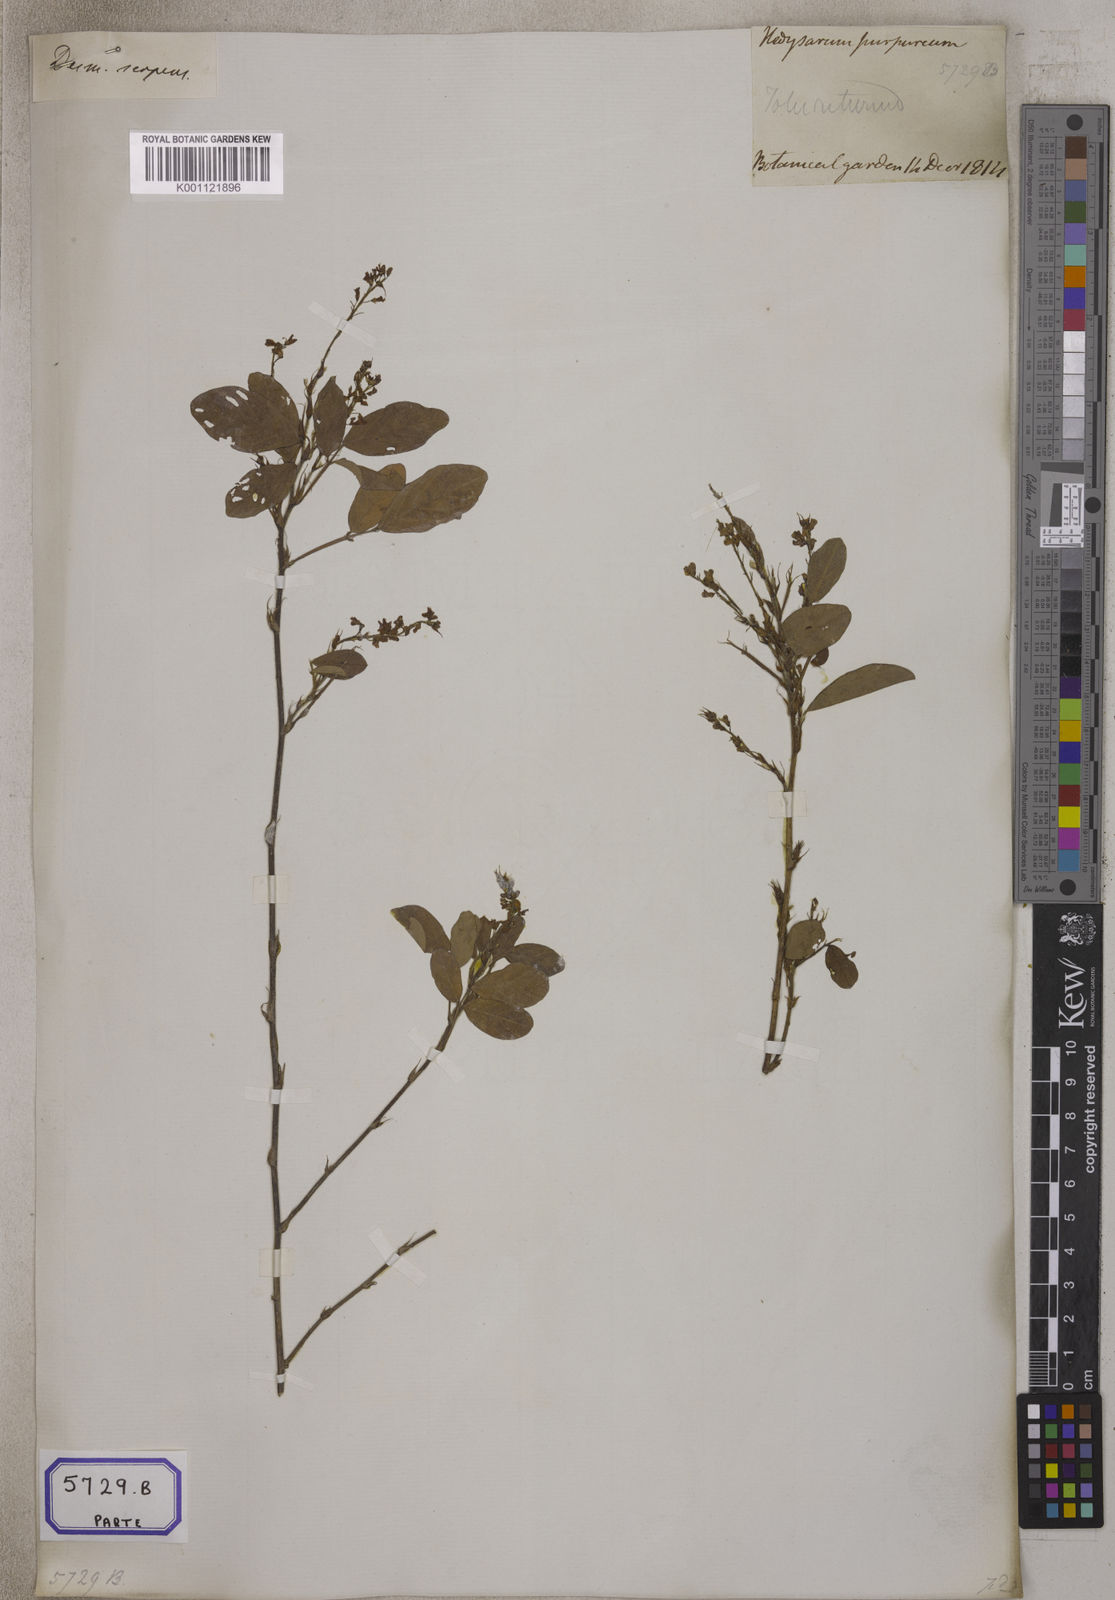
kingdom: Plantae
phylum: Tracheophyta
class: Magnoliopsida
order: Fabales
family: Fabaceae
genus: Desmodium
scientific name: Desmodium
